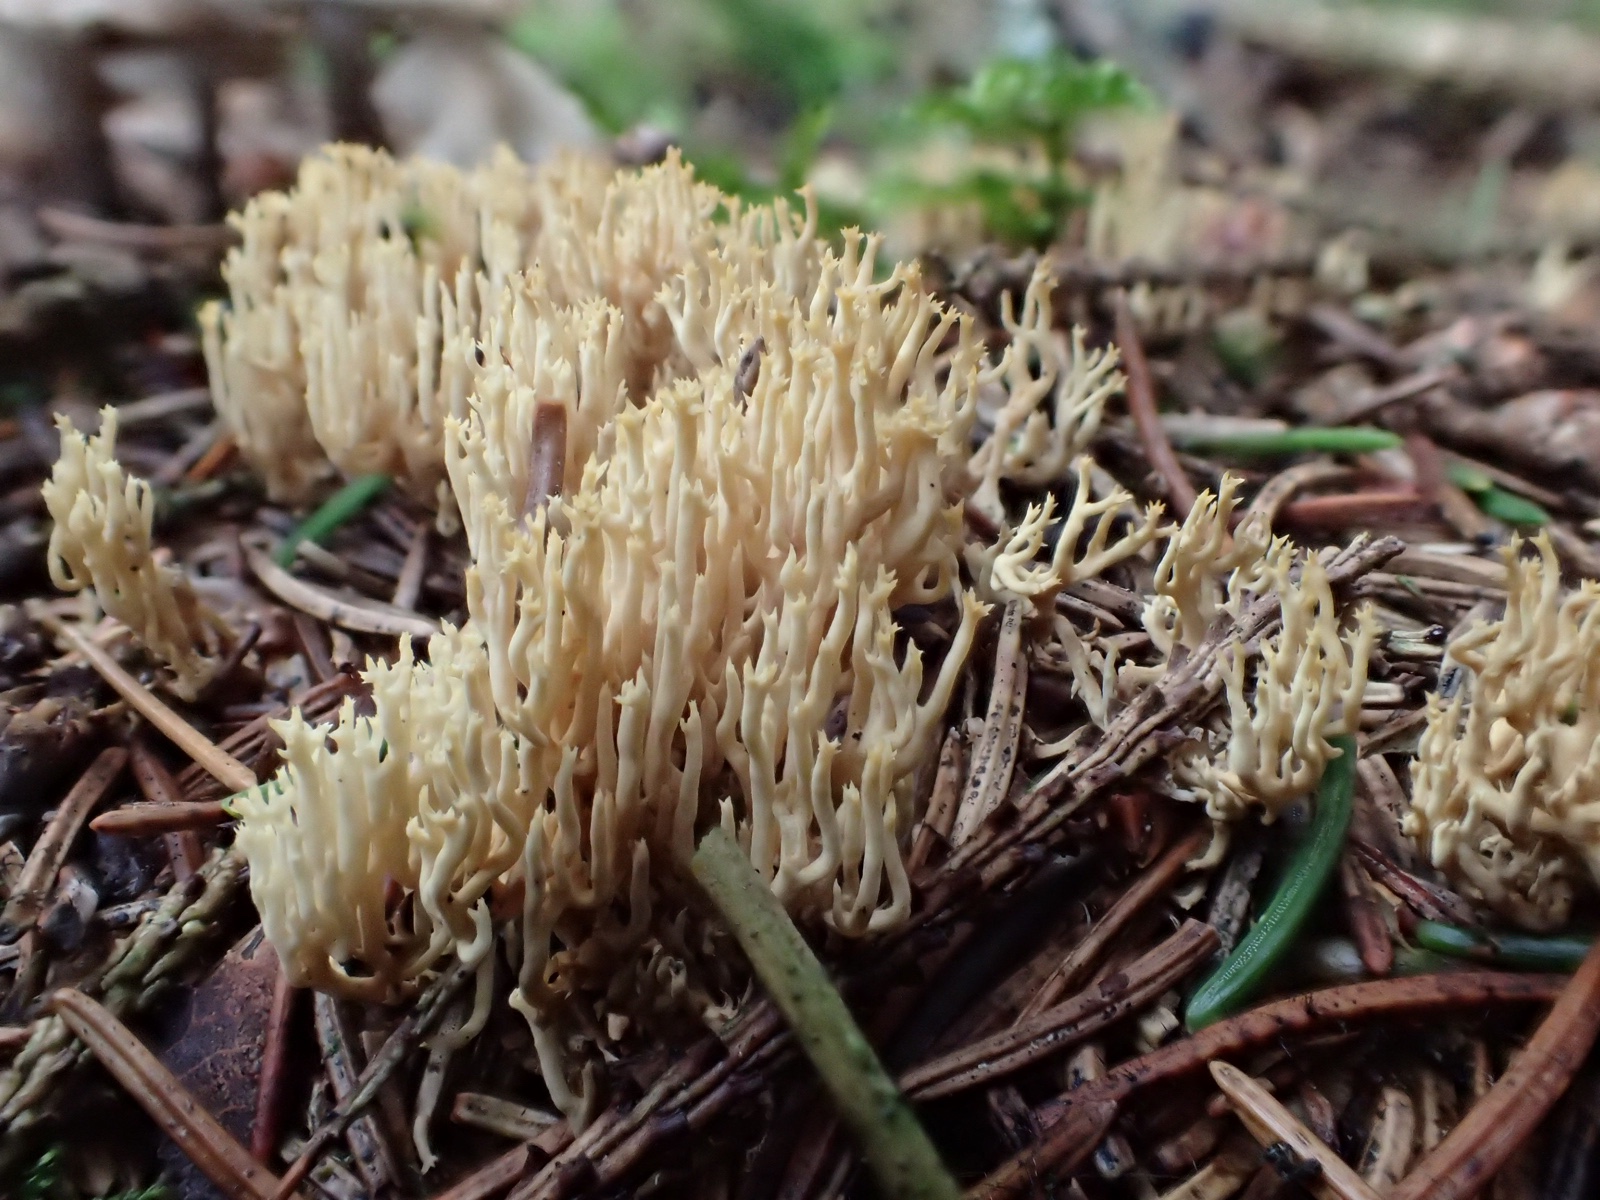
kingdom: Fungi
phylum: Basidiomycota
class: Agaricomycetes
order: Gomphales
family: Gomphaceae
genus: Ramaria
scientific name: Ramaria stricta
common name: rank koralsvamp
